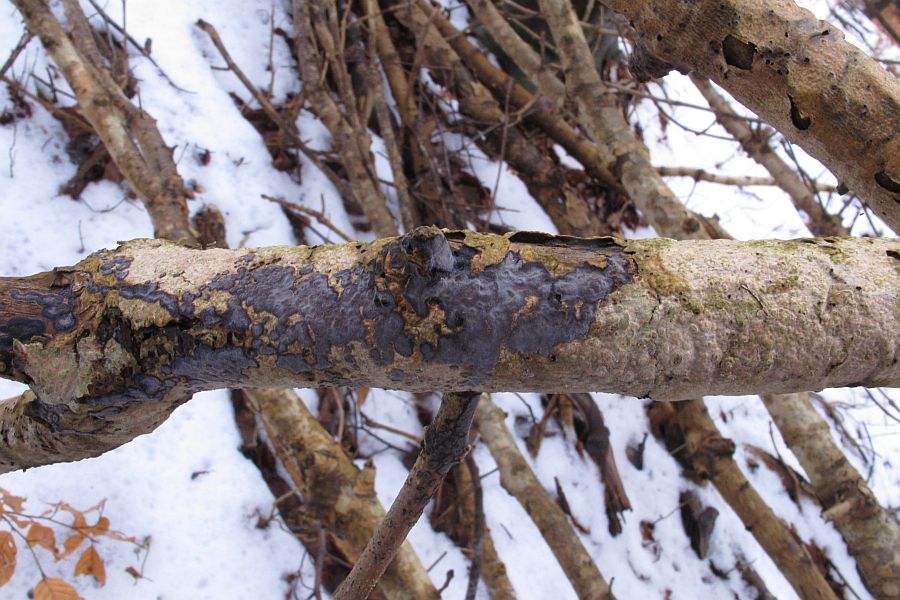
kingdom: Fungi
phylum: Basidiomycota
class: Agaricomycetes
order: Russulales
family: Peniophoraceae
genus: Peniophora
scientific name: Peniophora limitata
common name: mørkrandet voksskind
